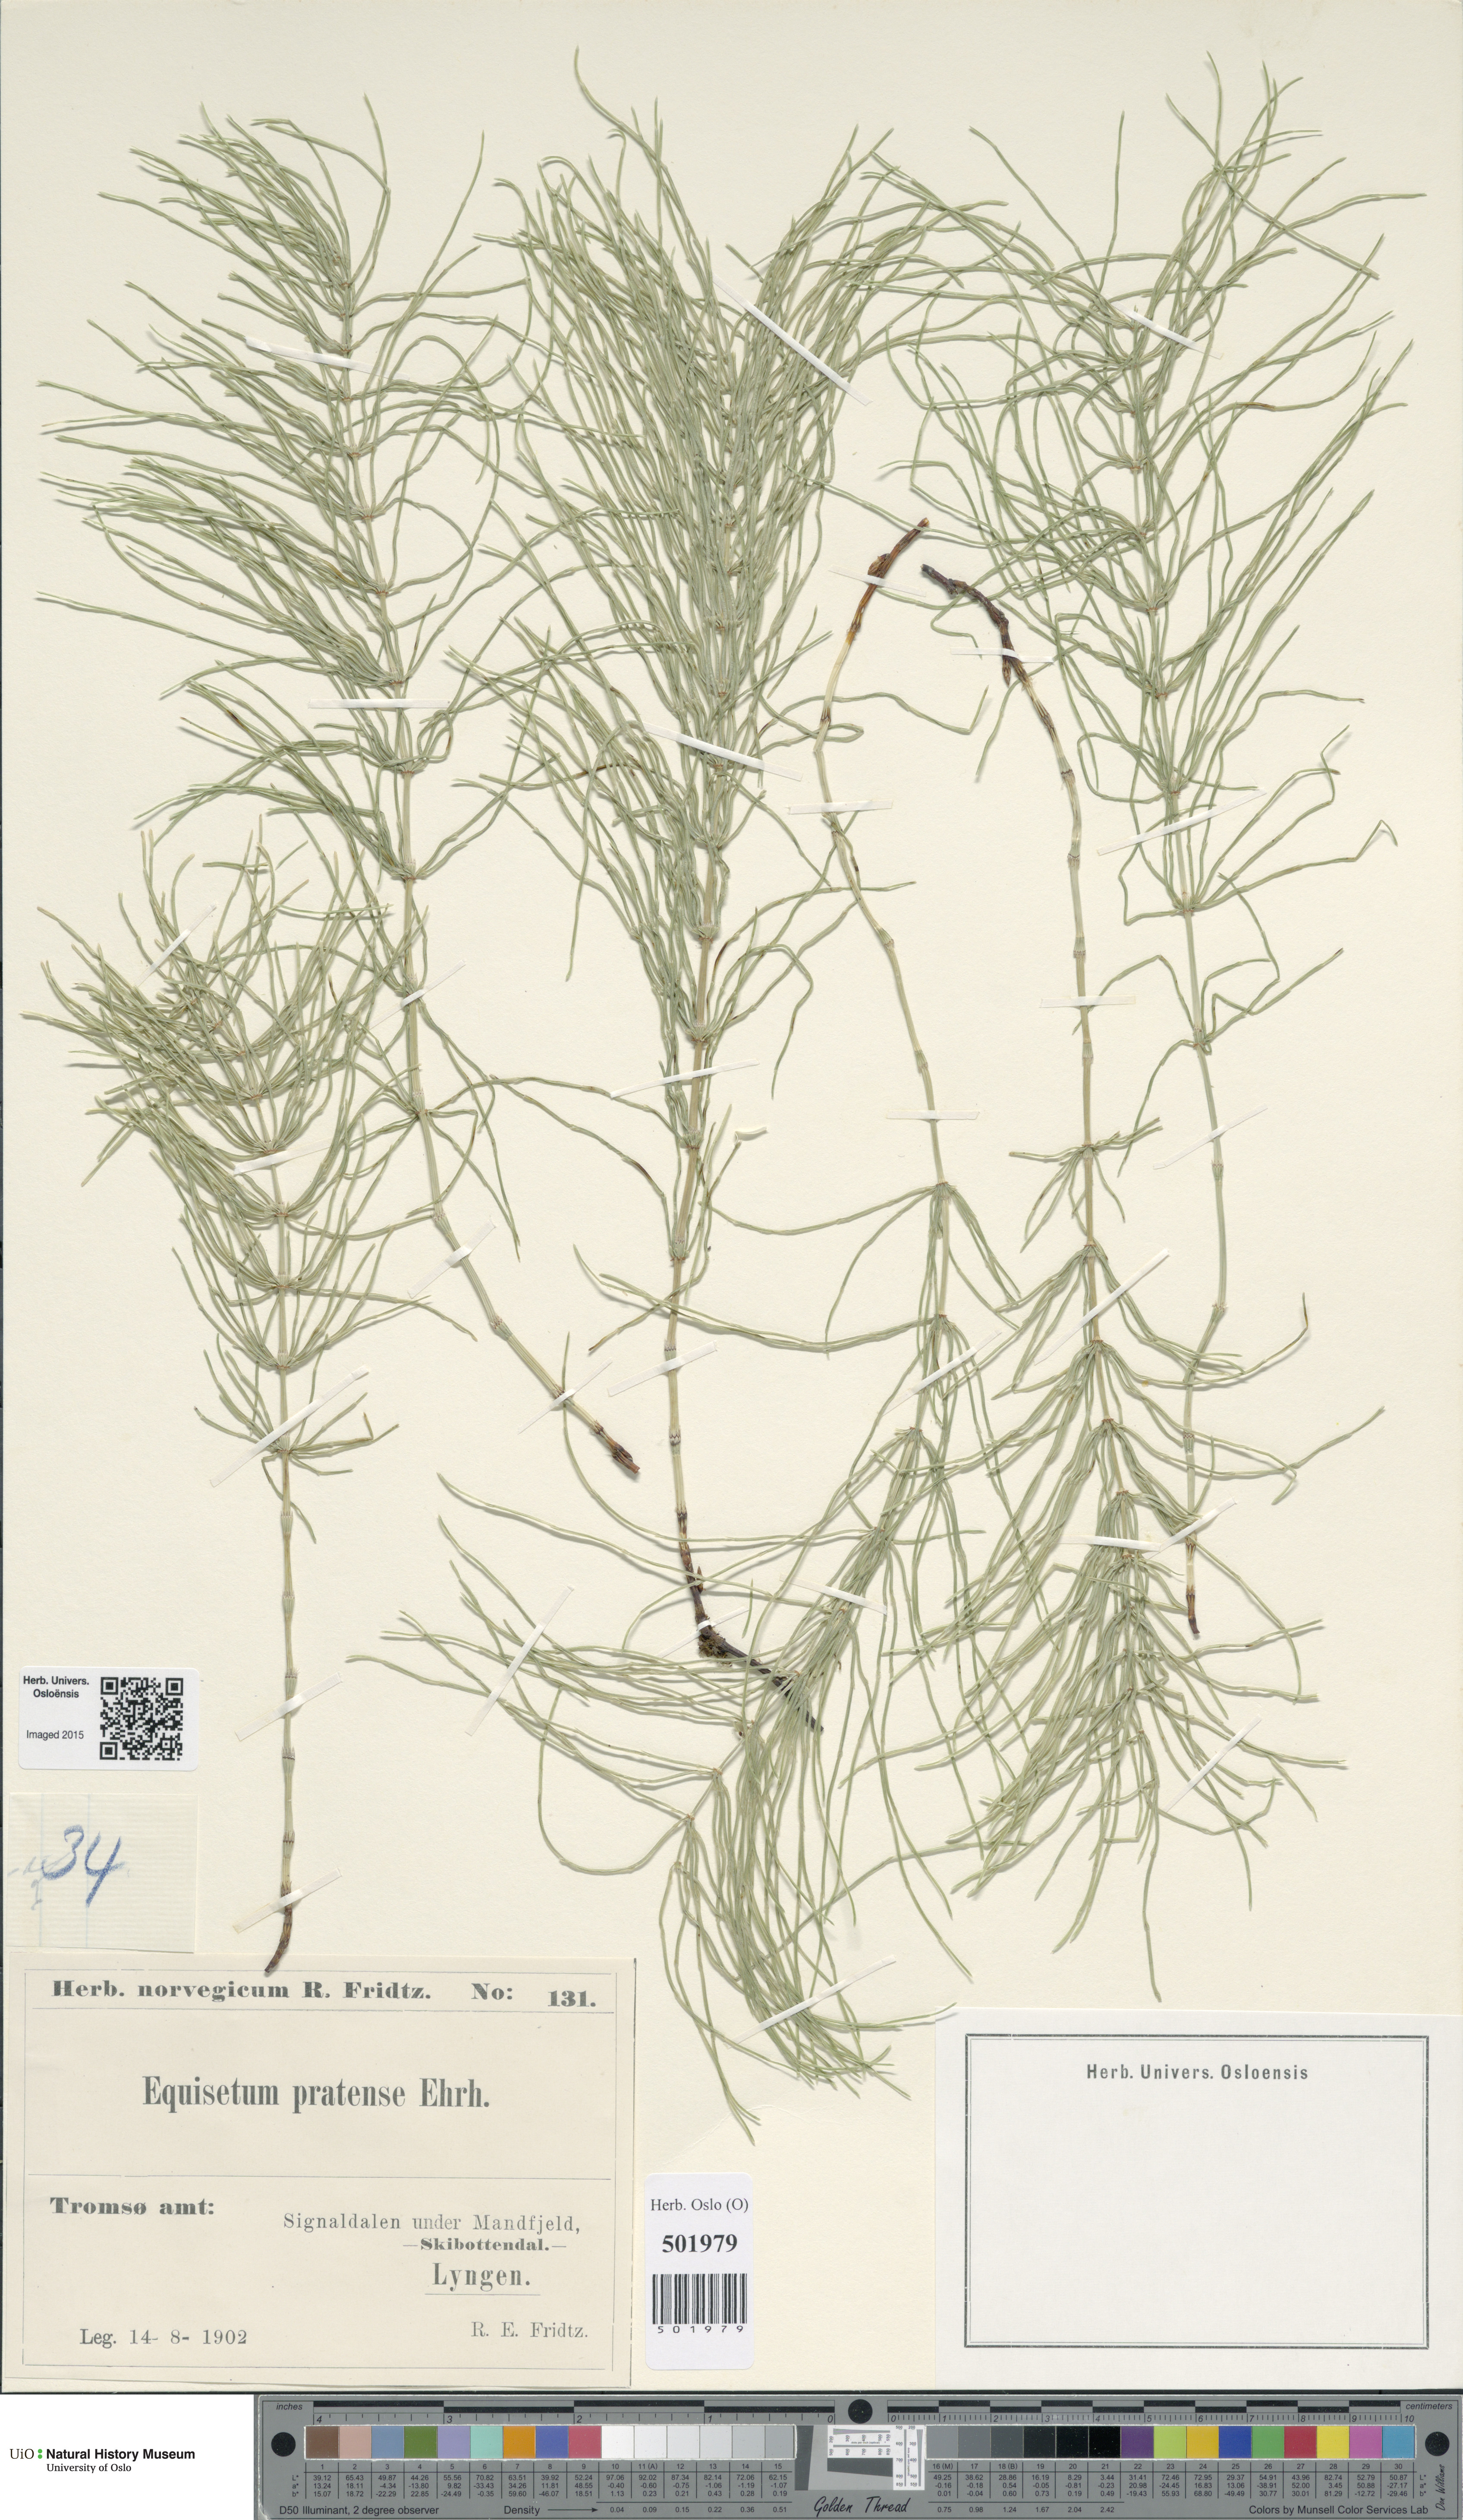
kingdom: Plantae
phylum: Tracheophyta
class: Polypodiopsida
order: Equisetales
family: Equisetaceae
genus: Equisetum
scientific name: Equisetum pratense
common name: Meadow horsetail
